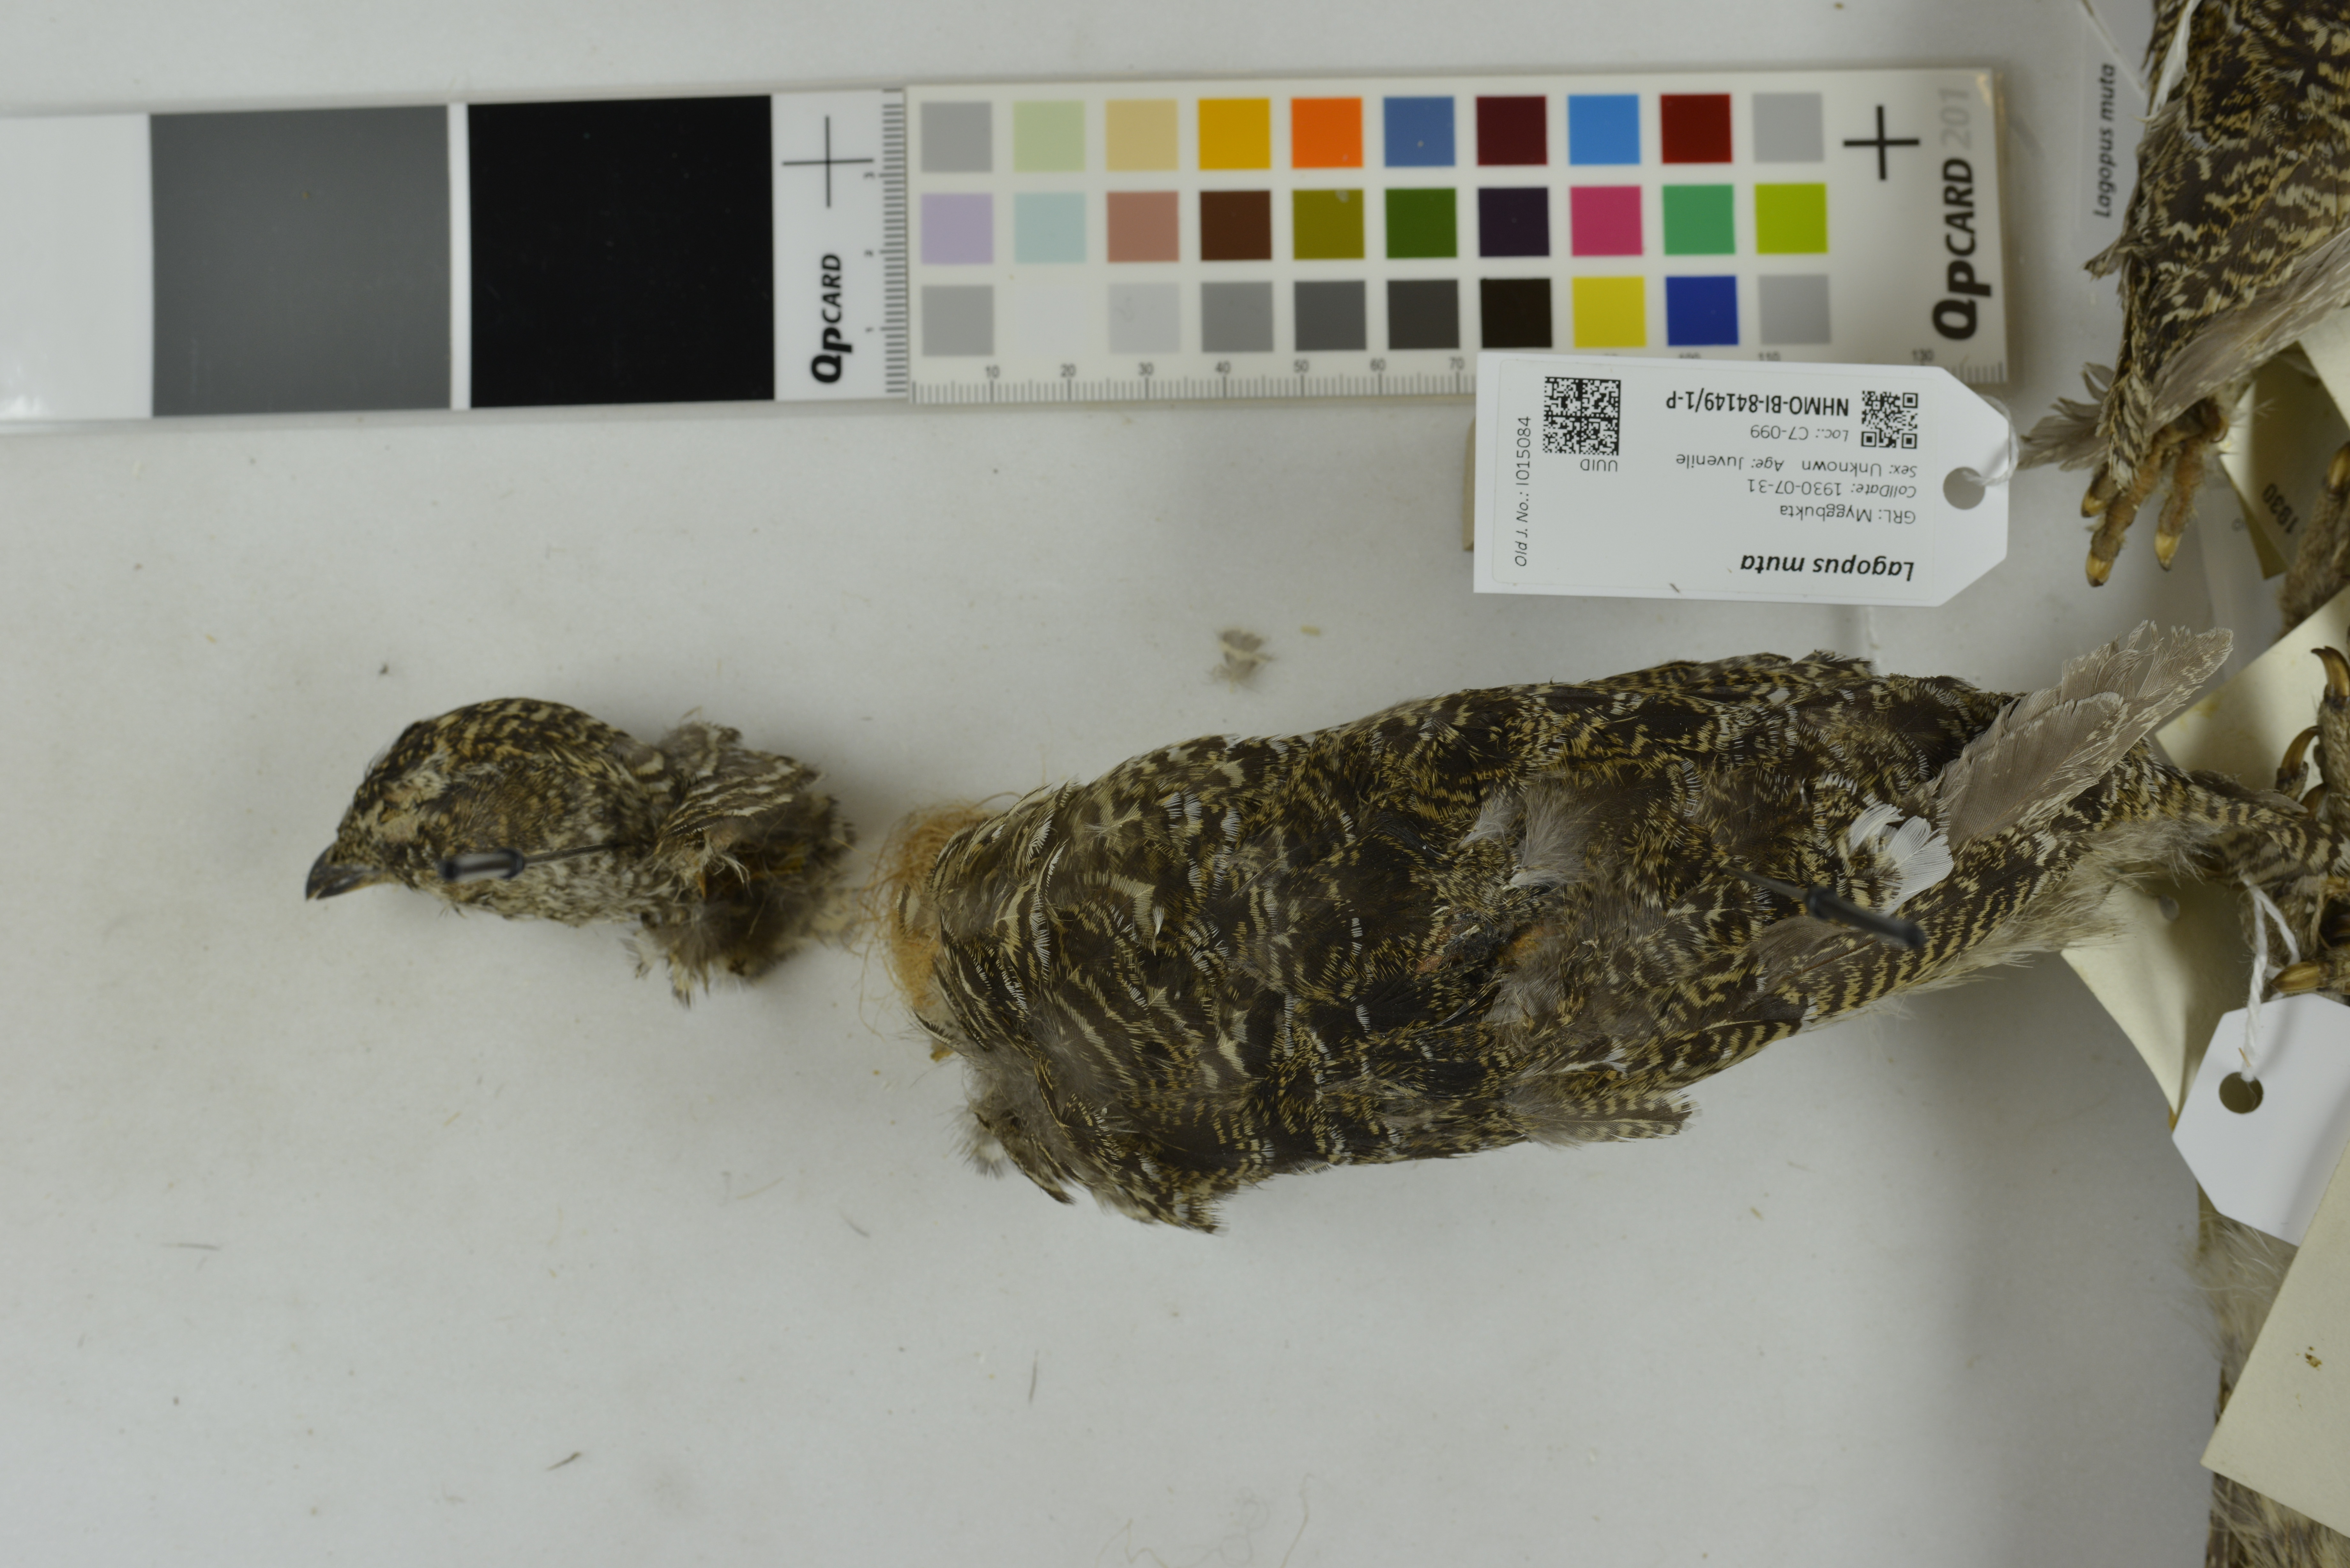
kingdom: Animalia
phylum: Chordata
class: Aves
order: Galliformes
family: Phasianidae
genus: Lagopus
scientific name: Lagopus muta
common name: Rock ptarmigan
